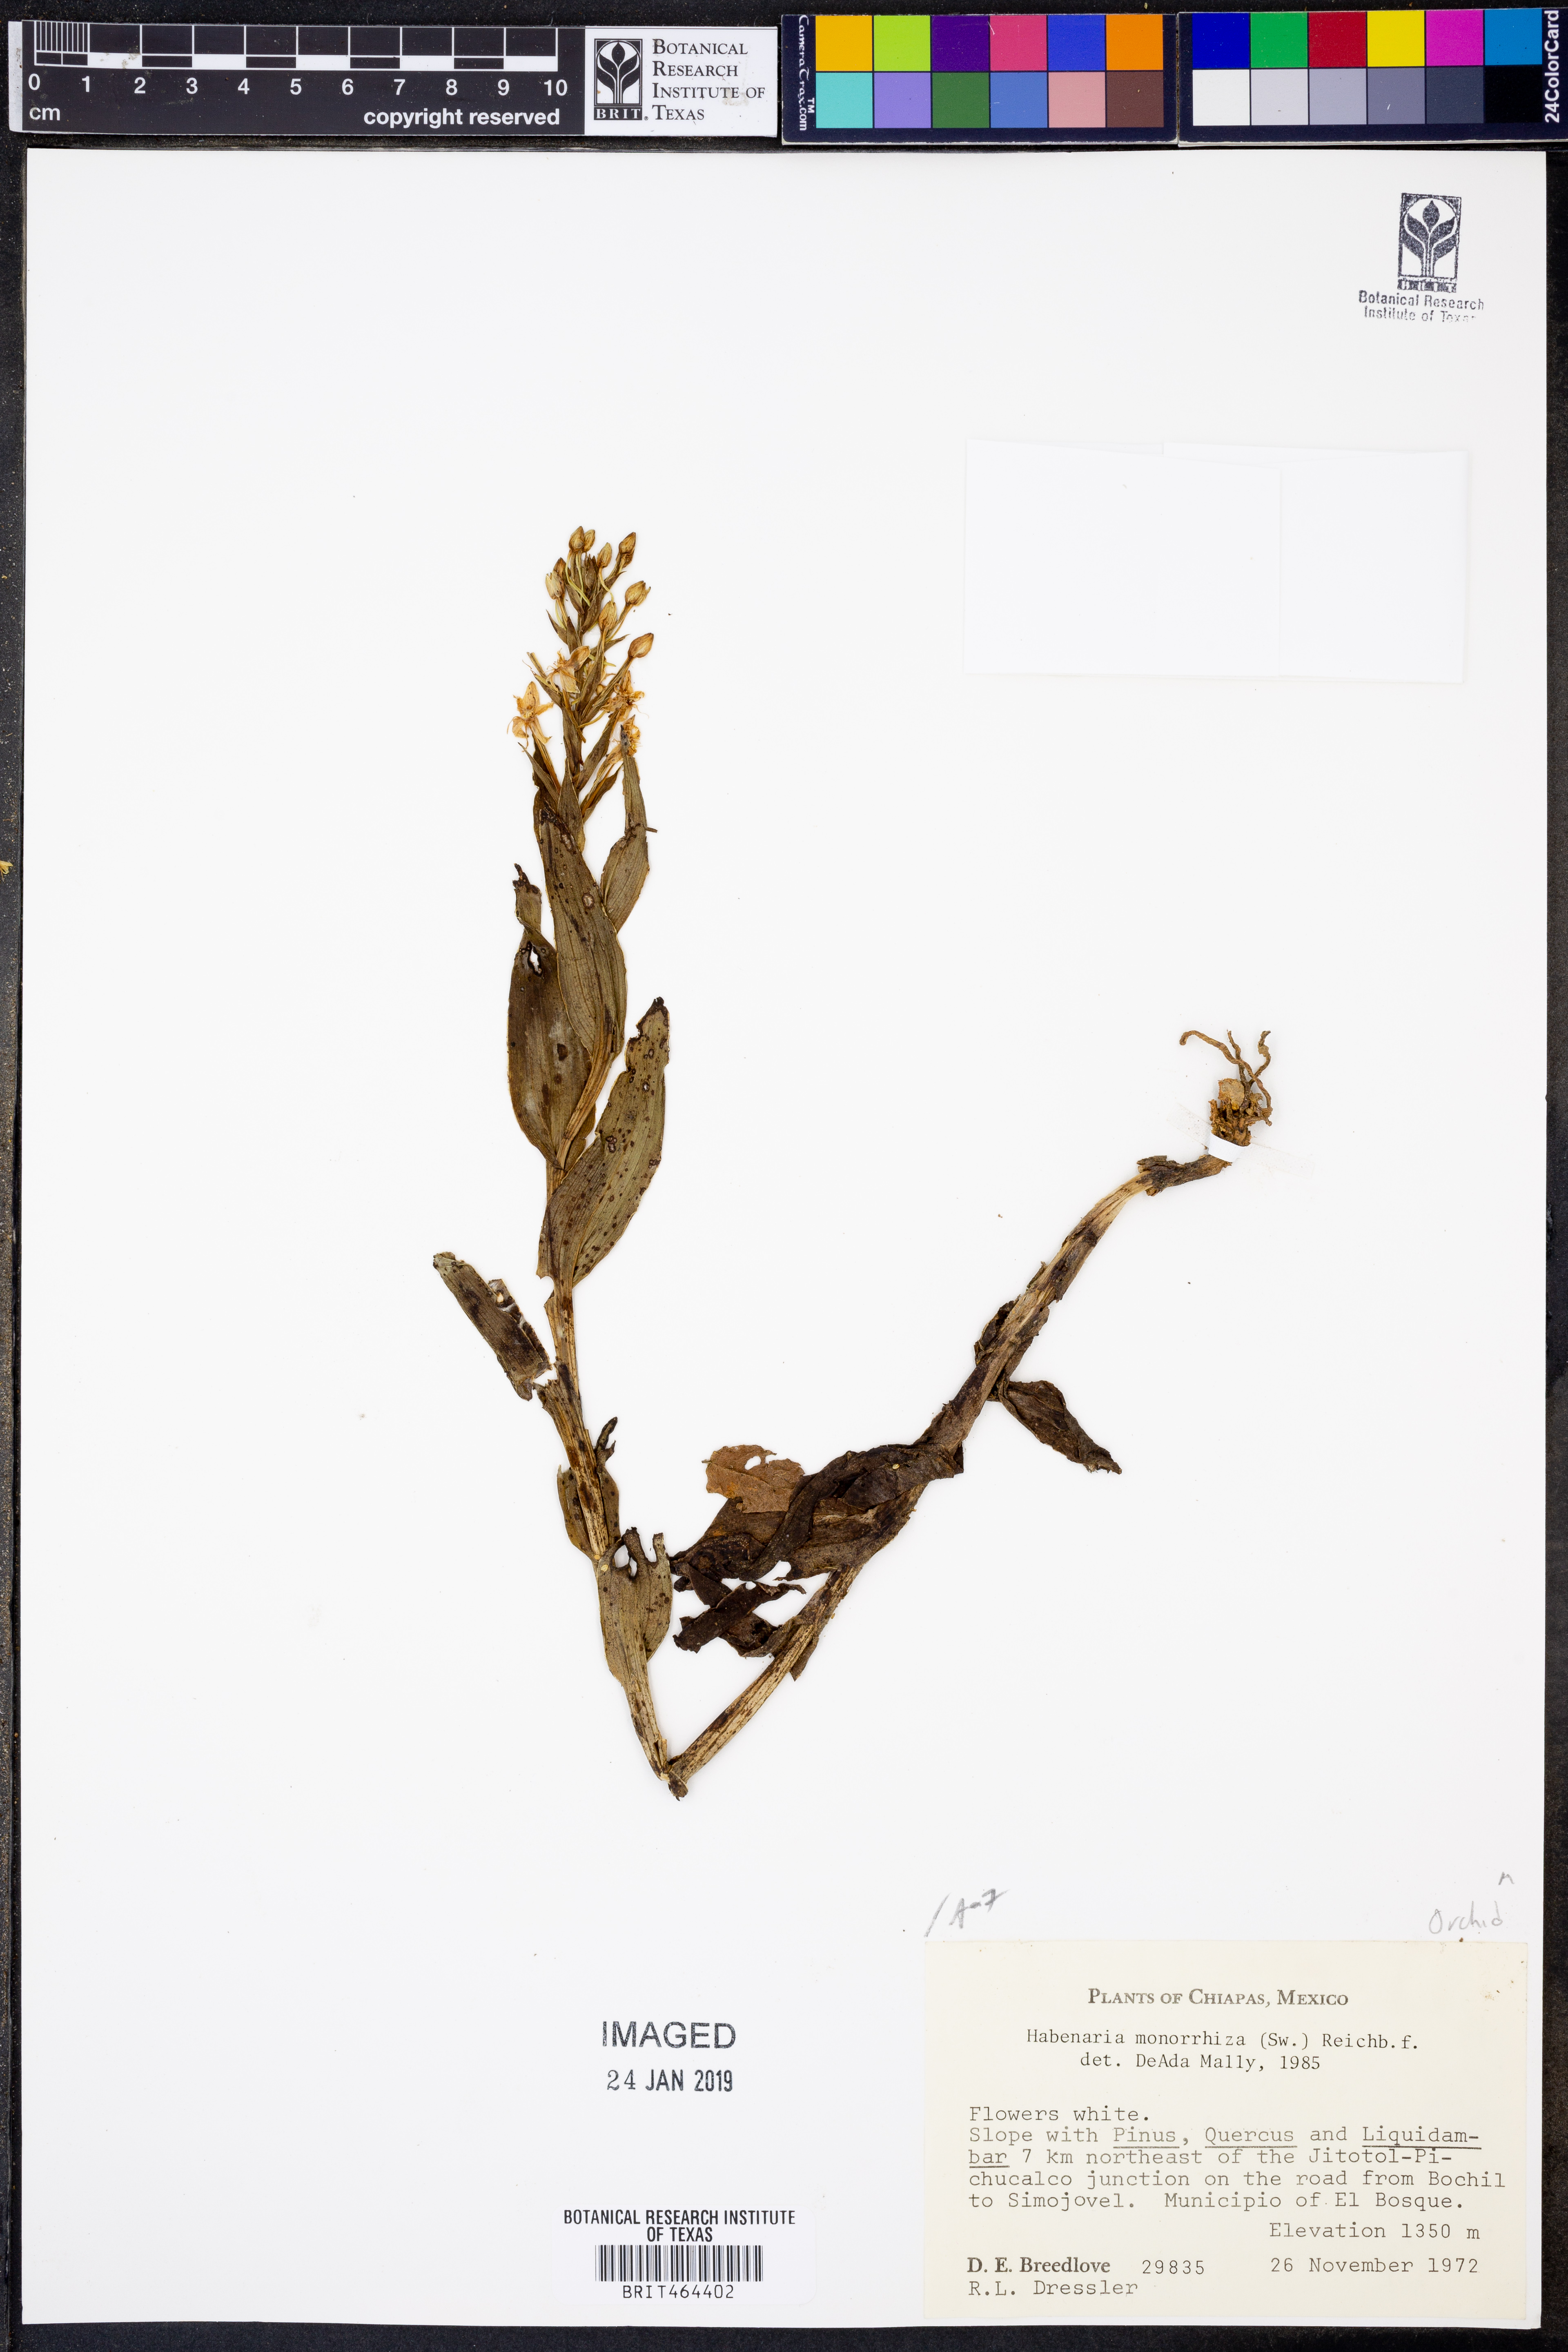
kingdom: Plantae
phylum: Tracheophyta
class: Liliopsida
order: Asparagales
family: Orchidaceae
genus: Habenaria
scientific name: Habenaria monorrhiza
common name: Tropical bog orchid
